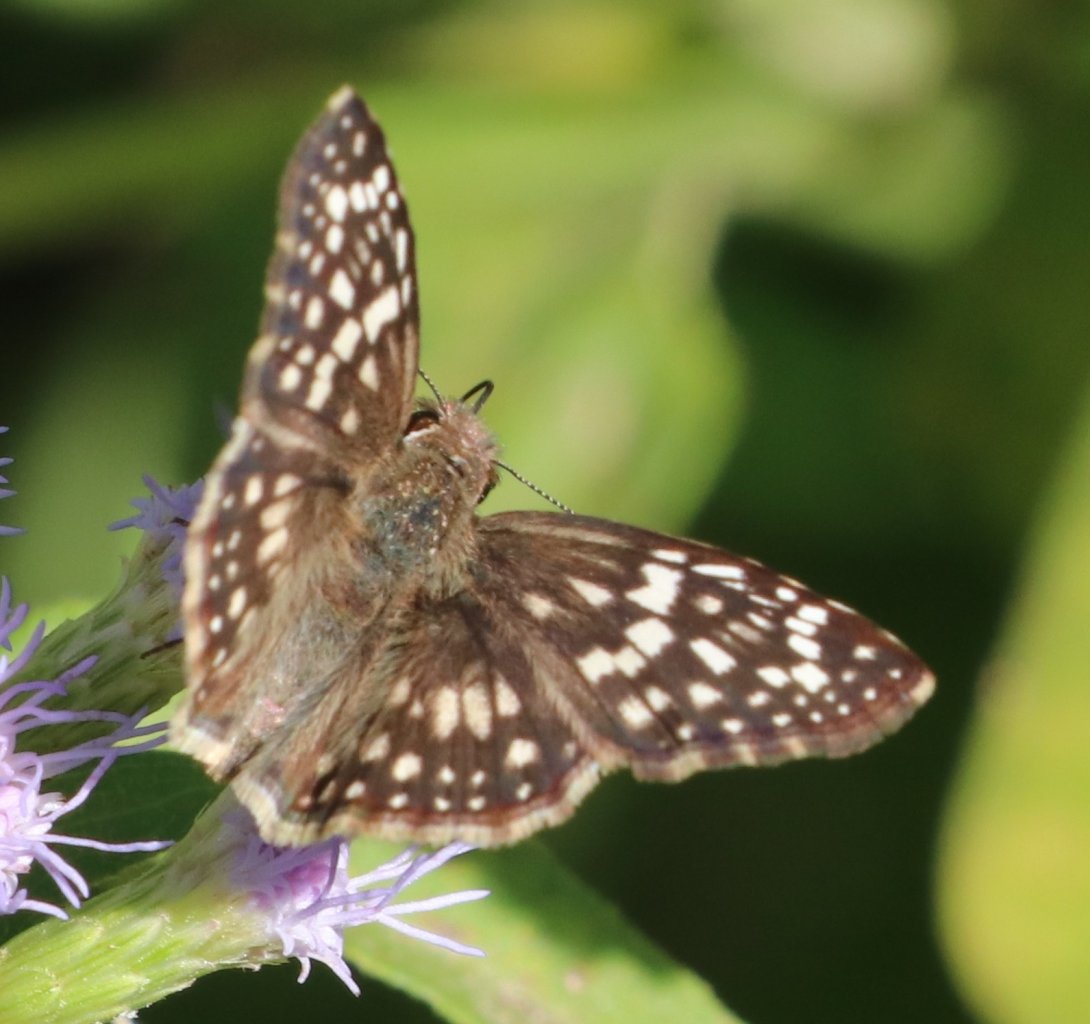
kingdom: Animalia
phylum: Arthropoda
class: Insecta
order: Lepidoptera
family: Hesperiidae
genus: Pyrgus
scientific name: Pyrgus oileus
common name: Tropical Checkered-Skipper
